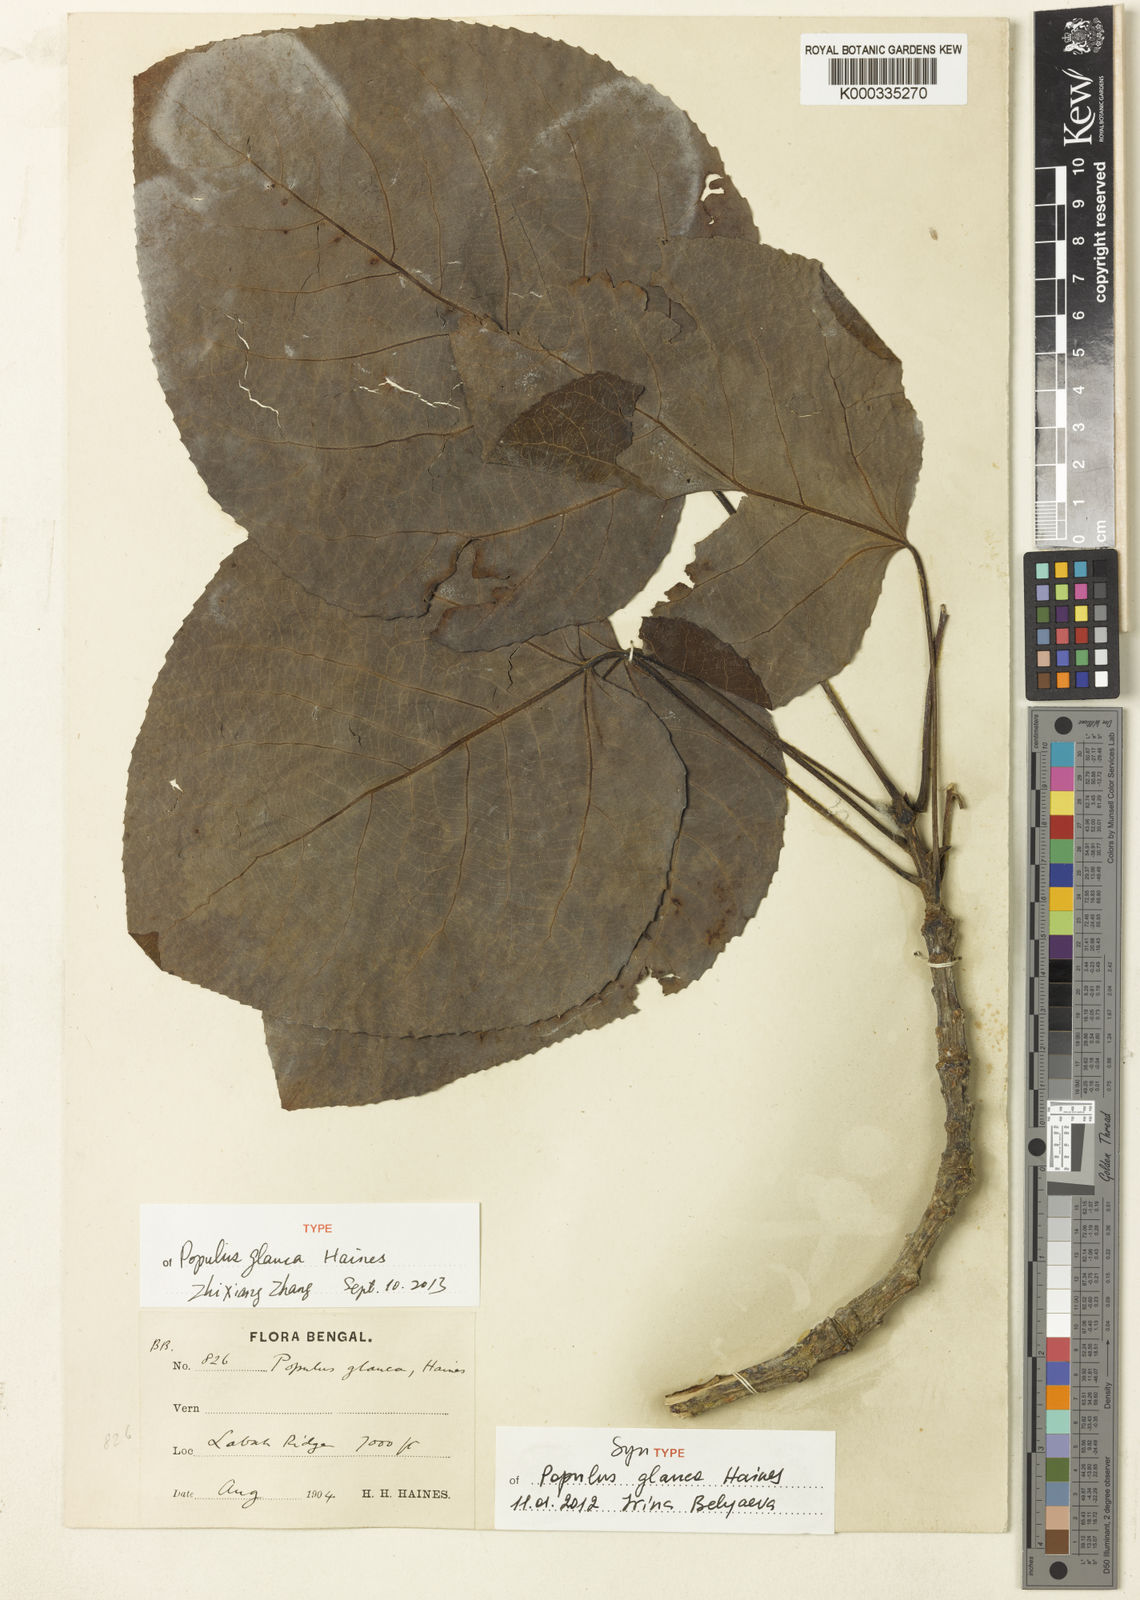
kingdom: Plantae
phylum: Tracheophyta
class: Magnoliopsida
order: Malpighiales
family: Salicaceae
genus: Populus
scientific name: Populus glauca
